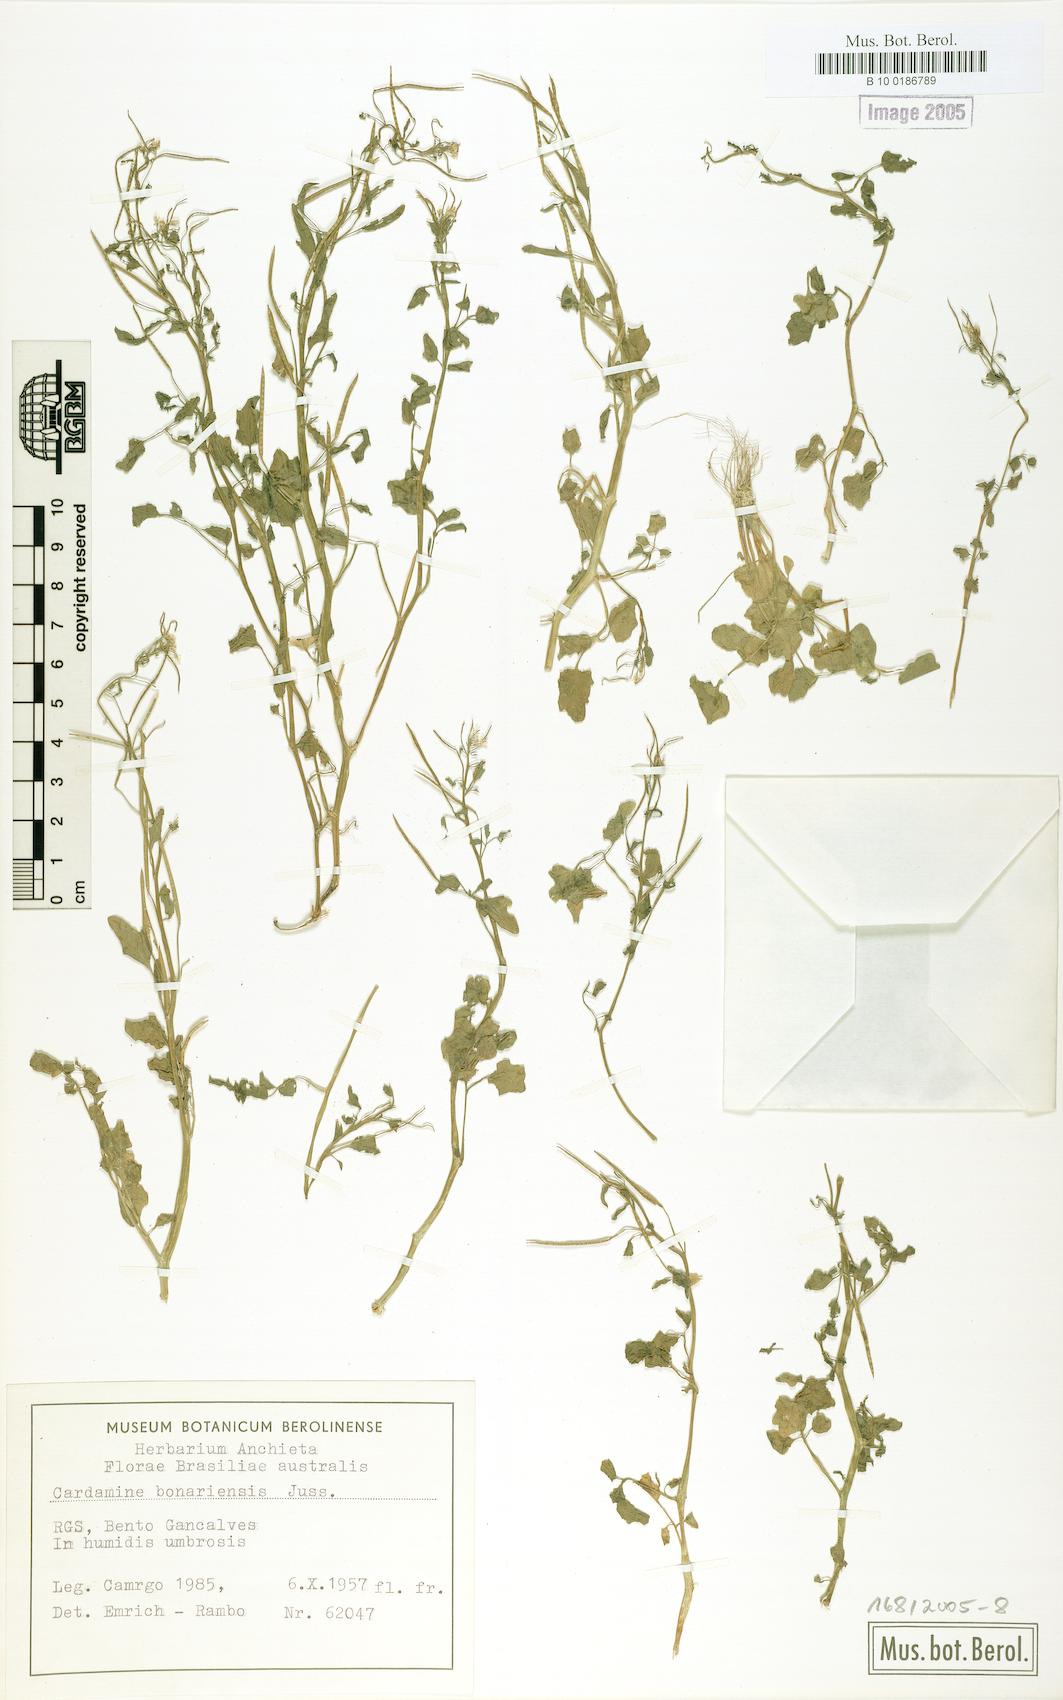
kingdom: Plantae
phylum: Tracheophyta
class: Magnoliopsida
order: Brassicales
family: Brassicaceae
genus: Cardamine
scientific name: Cardamine bonariensis
